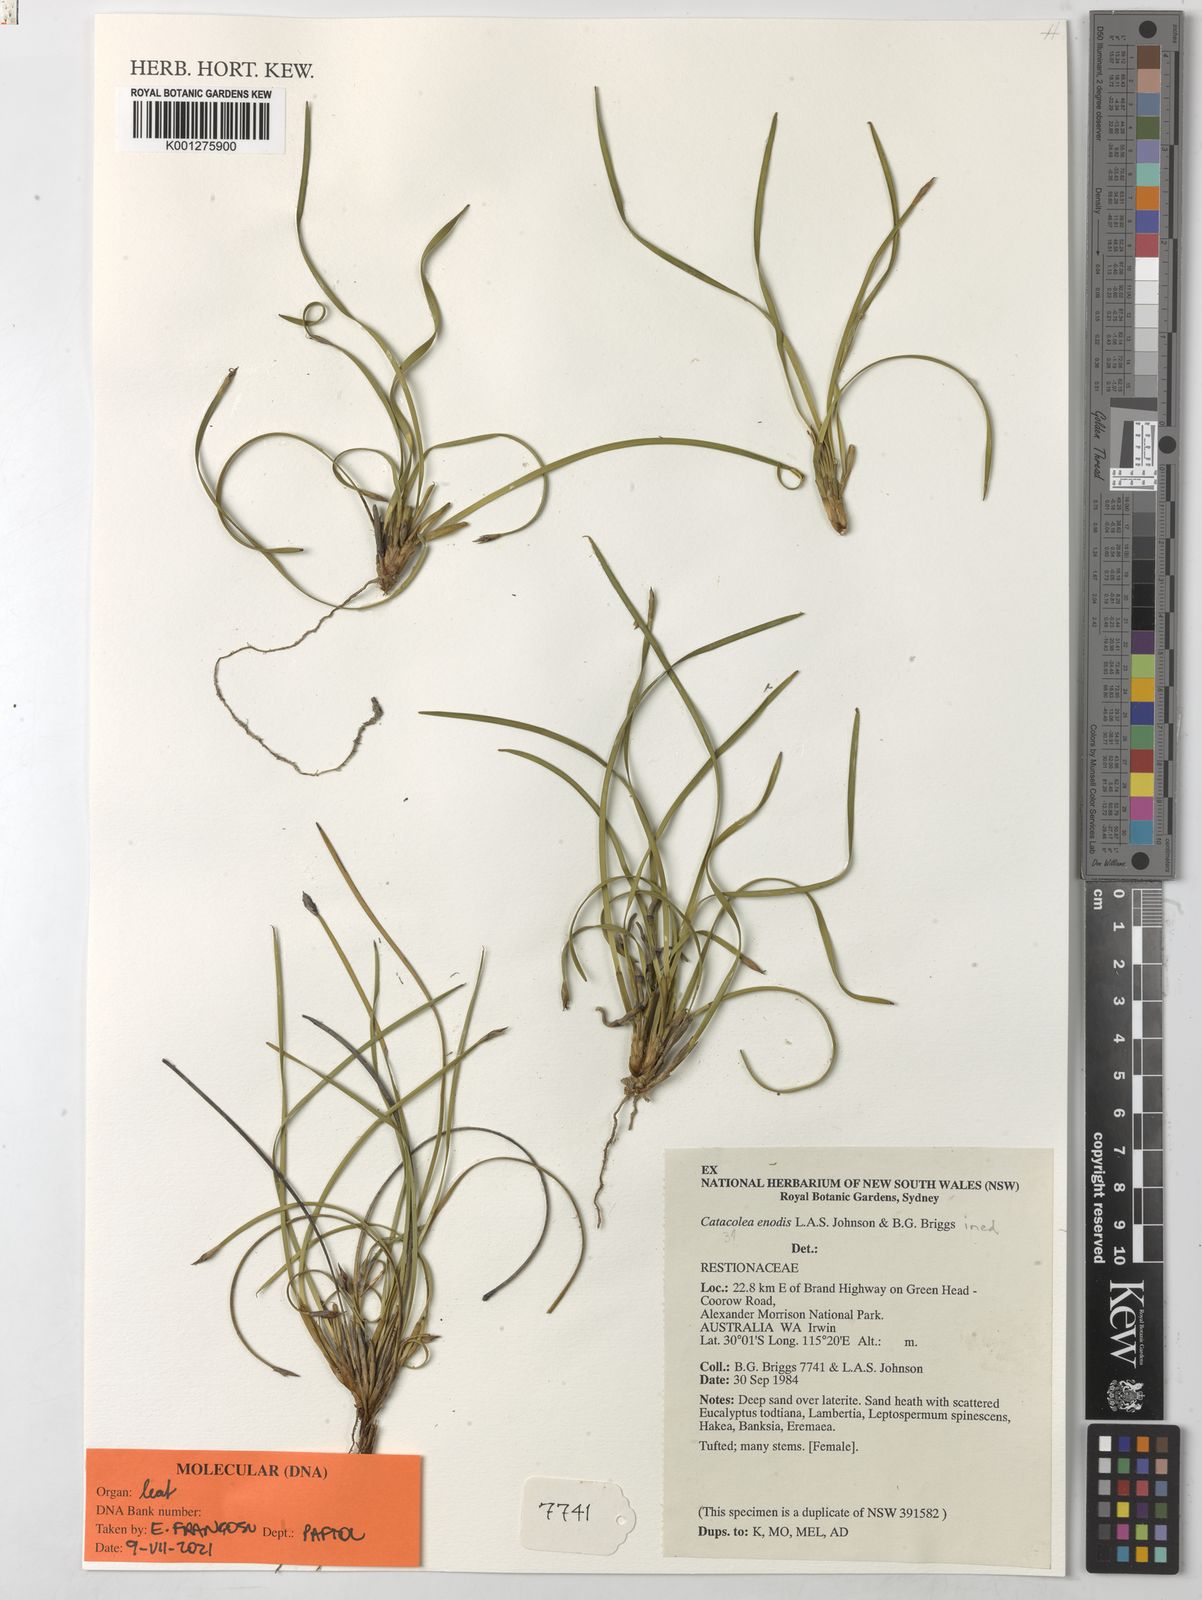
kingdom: Plantae
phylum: Tracheophyta
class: Liliopsida
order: Poales
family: Restionaceae
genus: Catacolea
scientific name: Catacolea enodis
